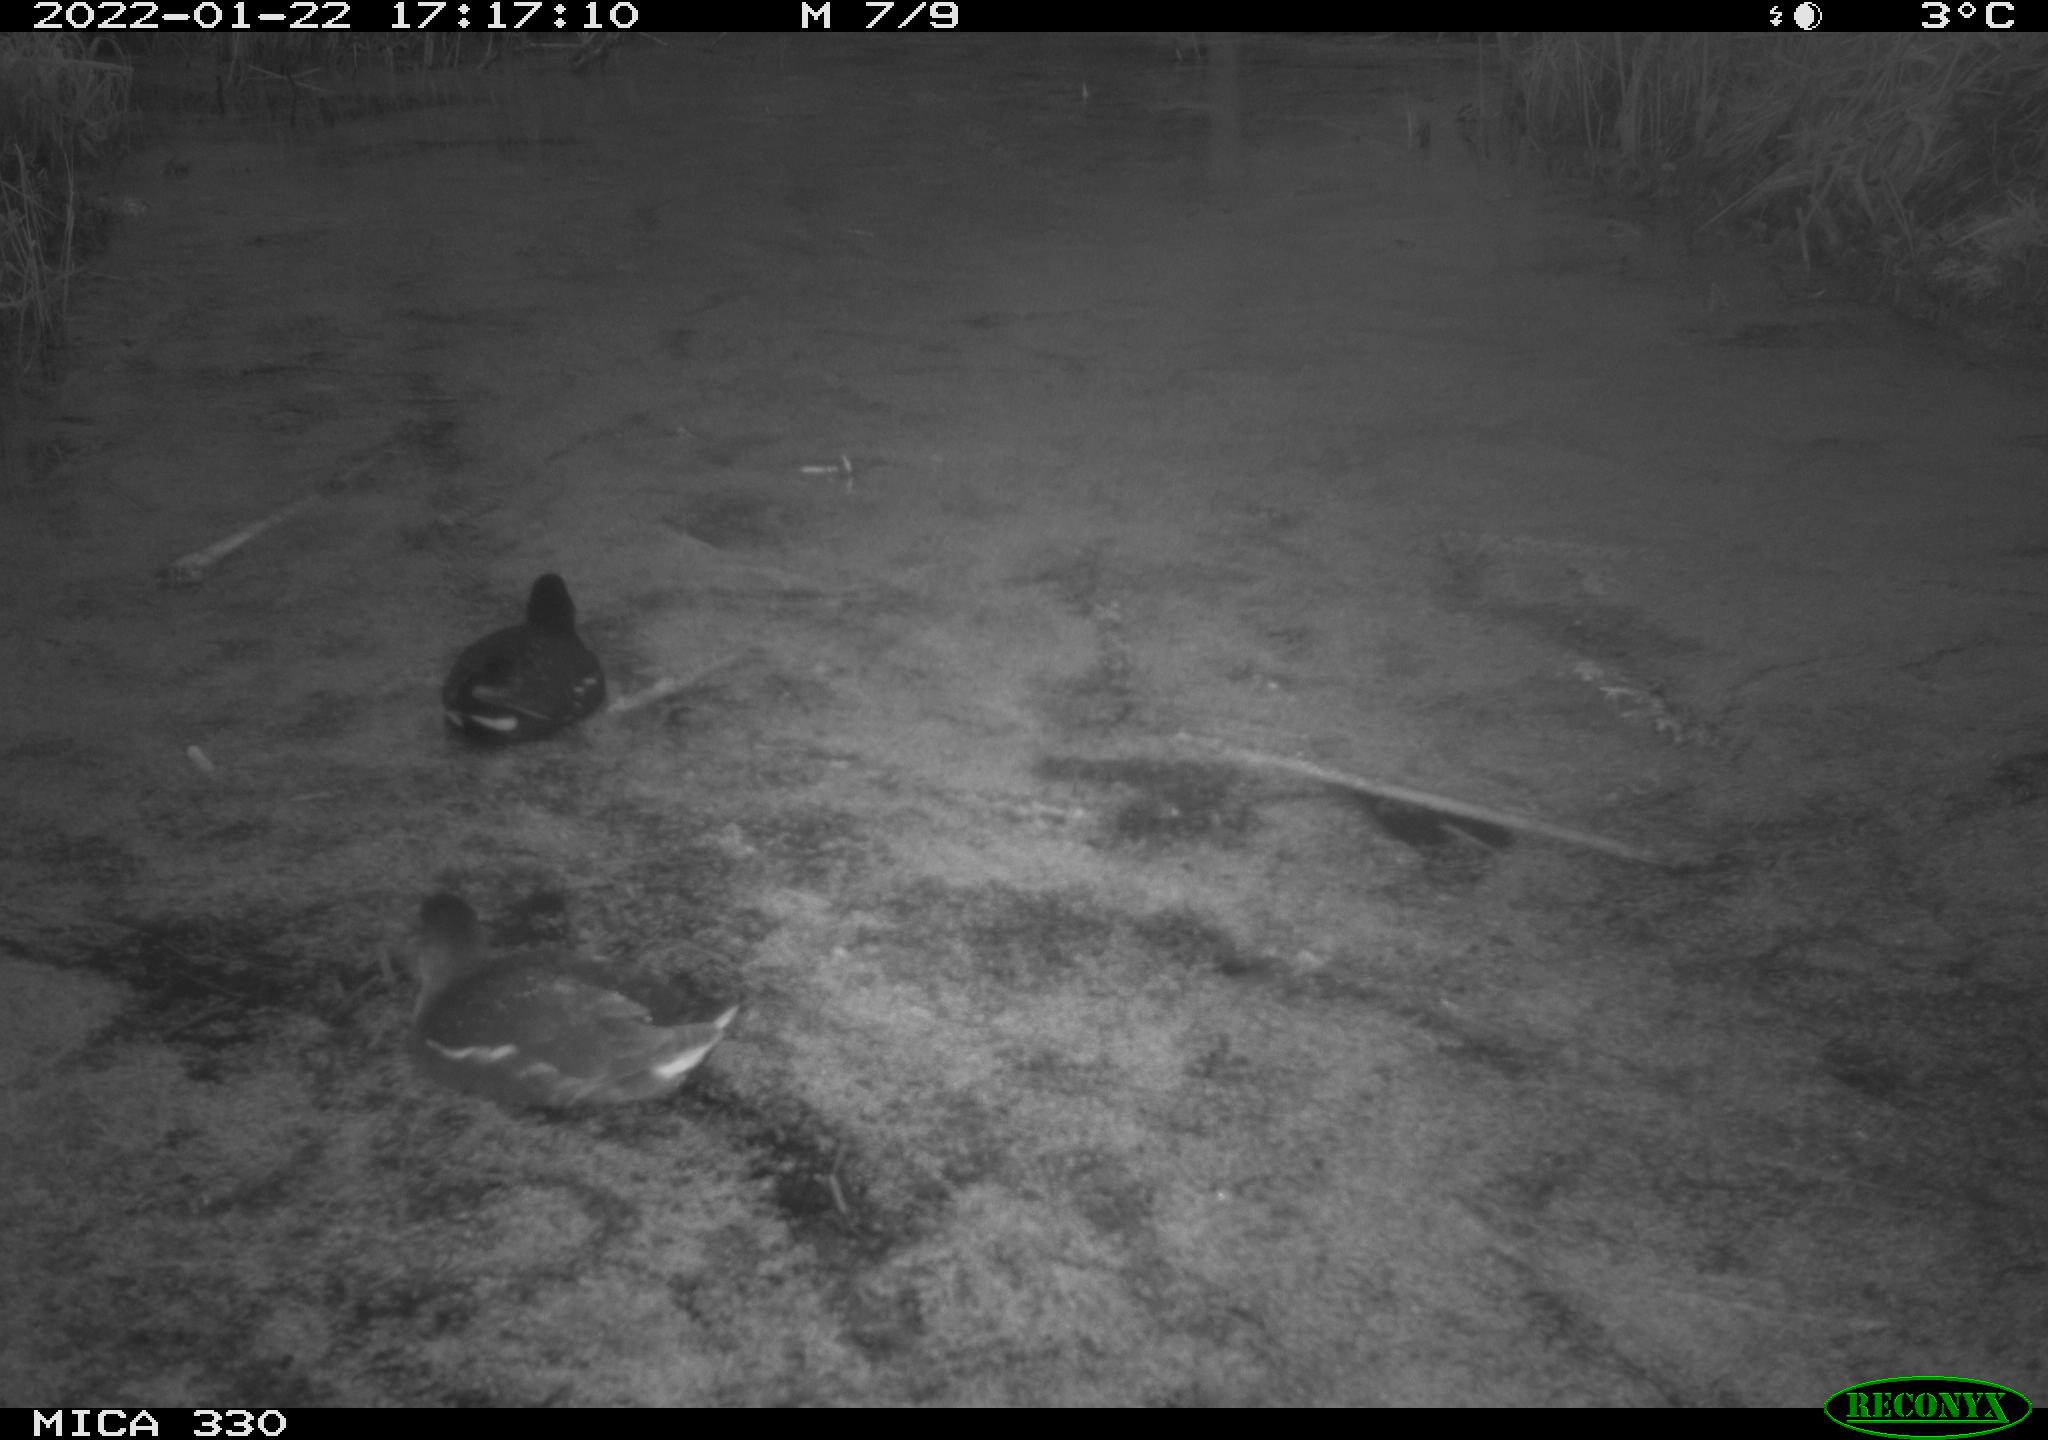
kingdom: Animalia
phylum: Chordata
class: Aves
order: Gruiformes
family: Rallidae
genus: Gallinula
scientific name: Gallinula chloropus
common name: Common moorhen
